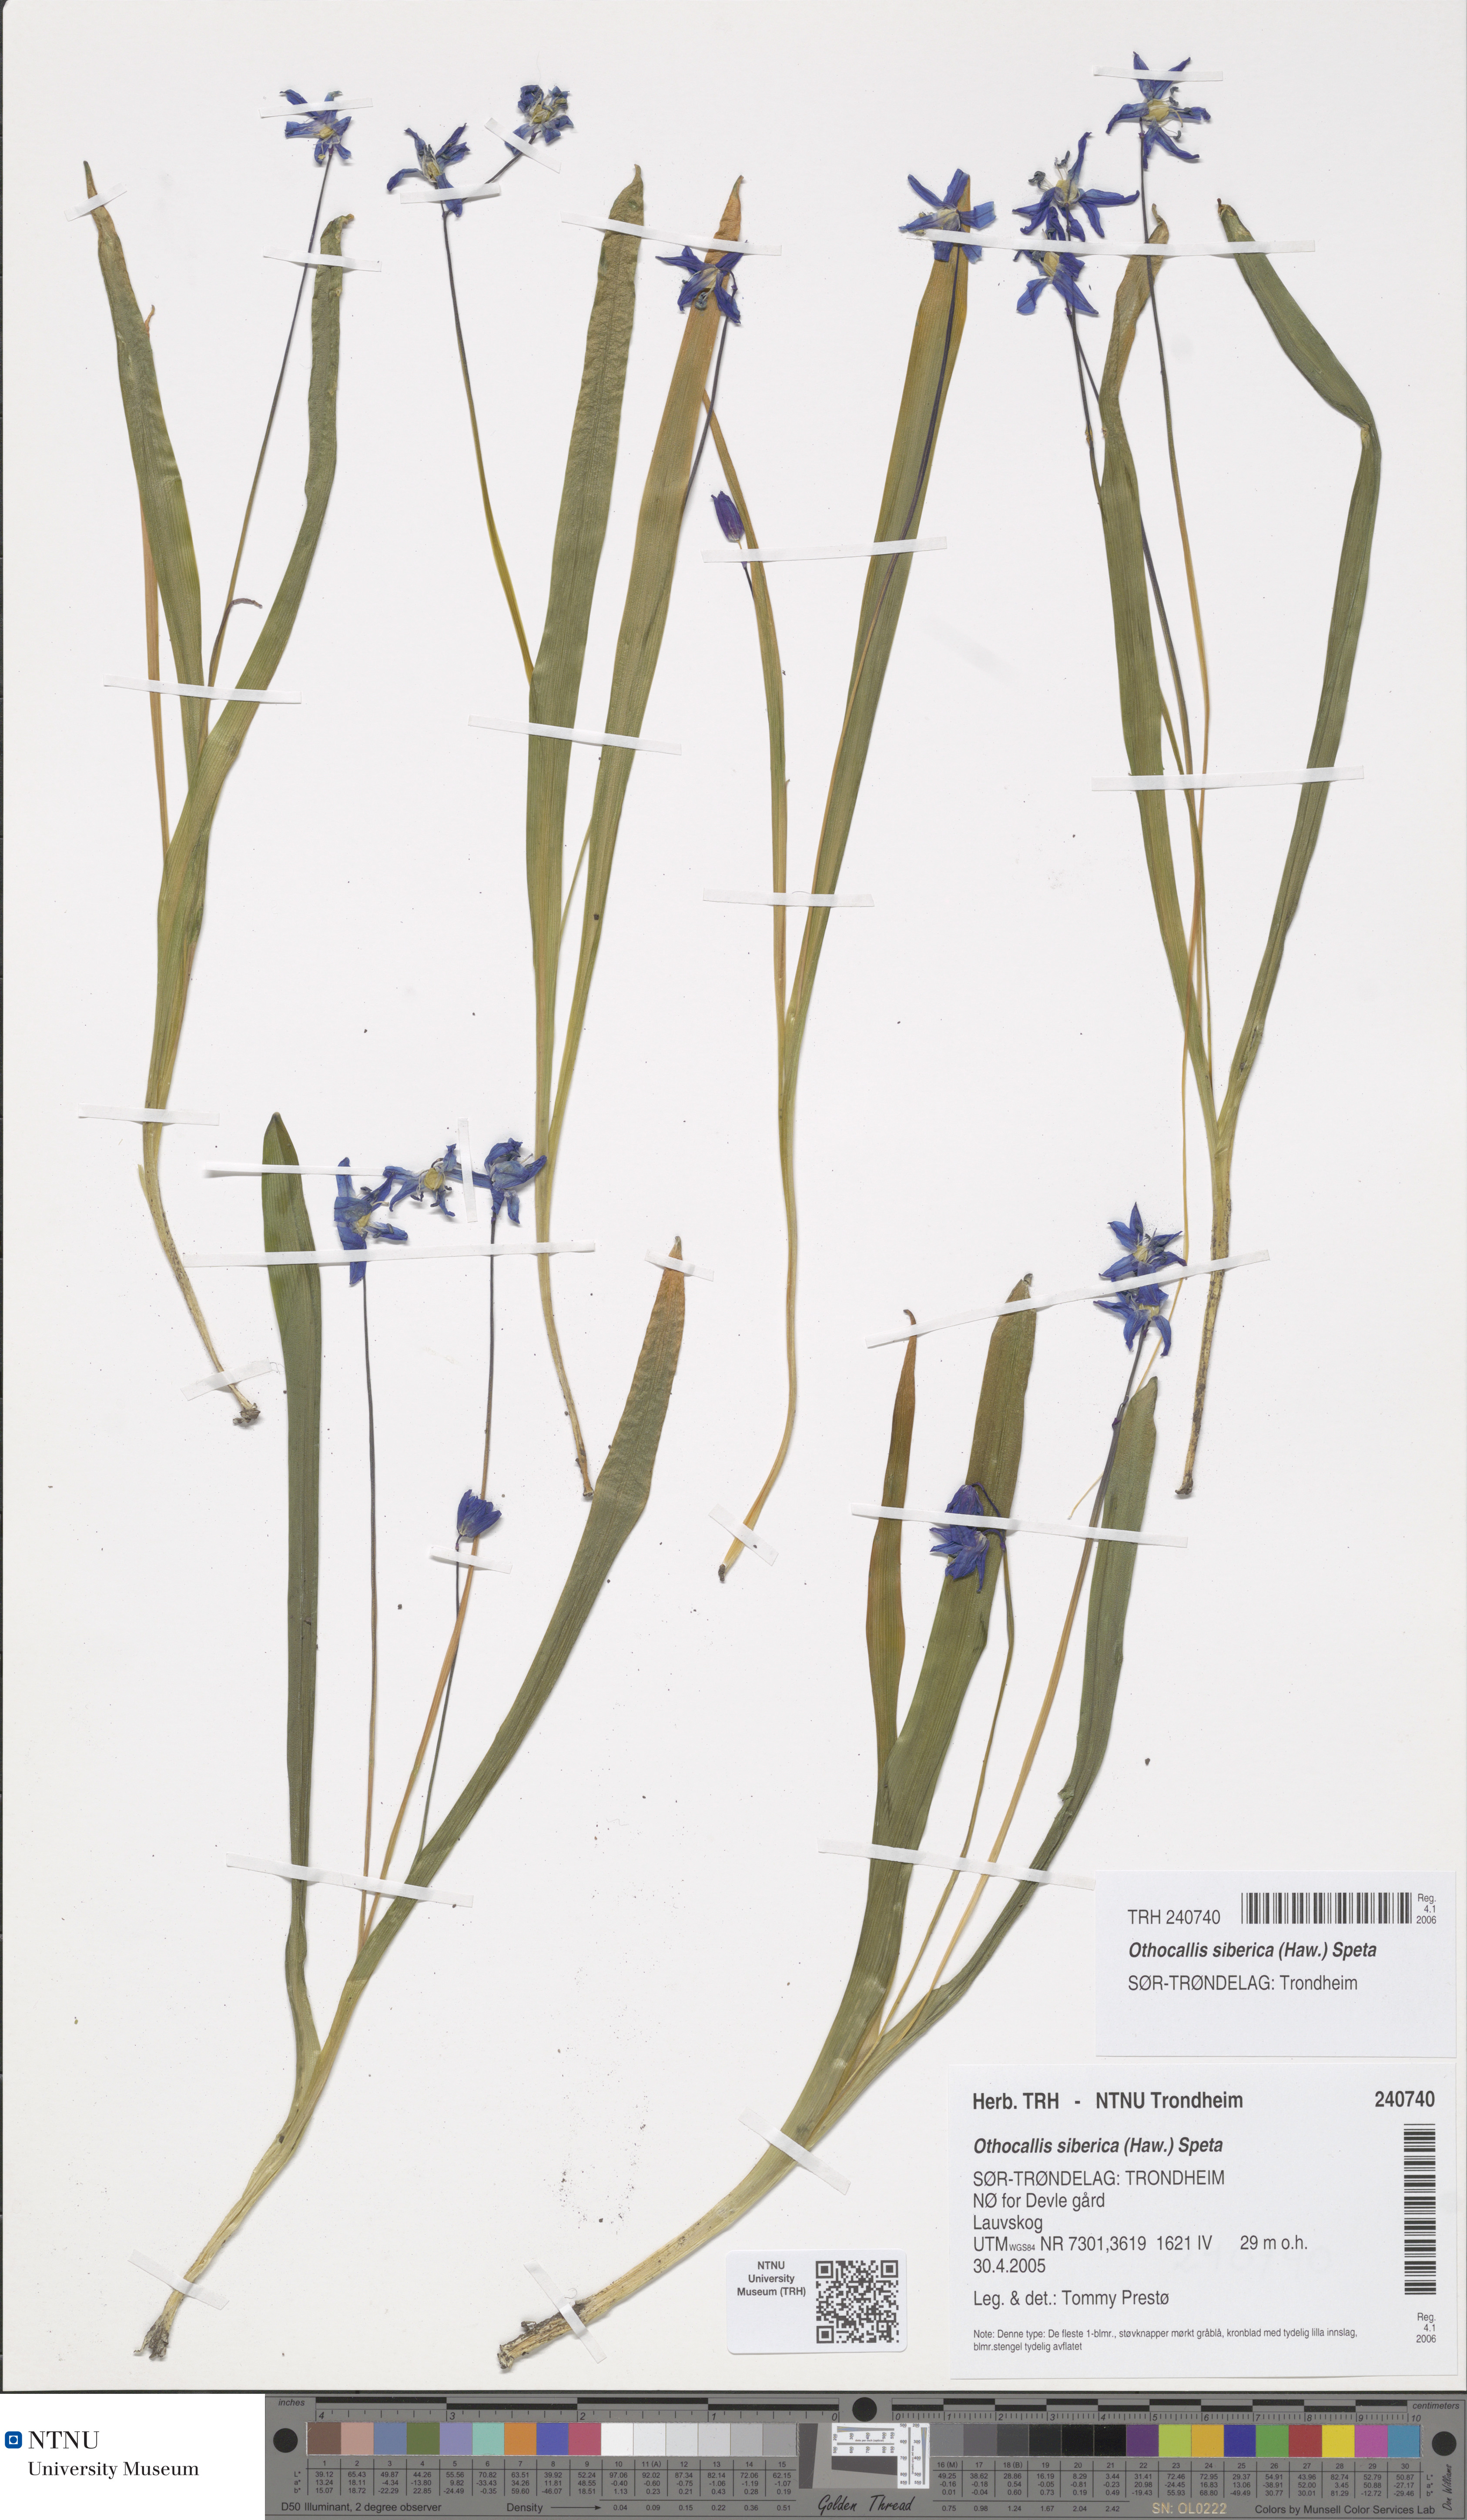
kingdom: Plantae
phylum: Tracheophyta
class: Liliopsida
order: Asparagales
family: Asparagaceae
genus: Scilla
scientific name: Scilla siberica
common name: Siberian squill
